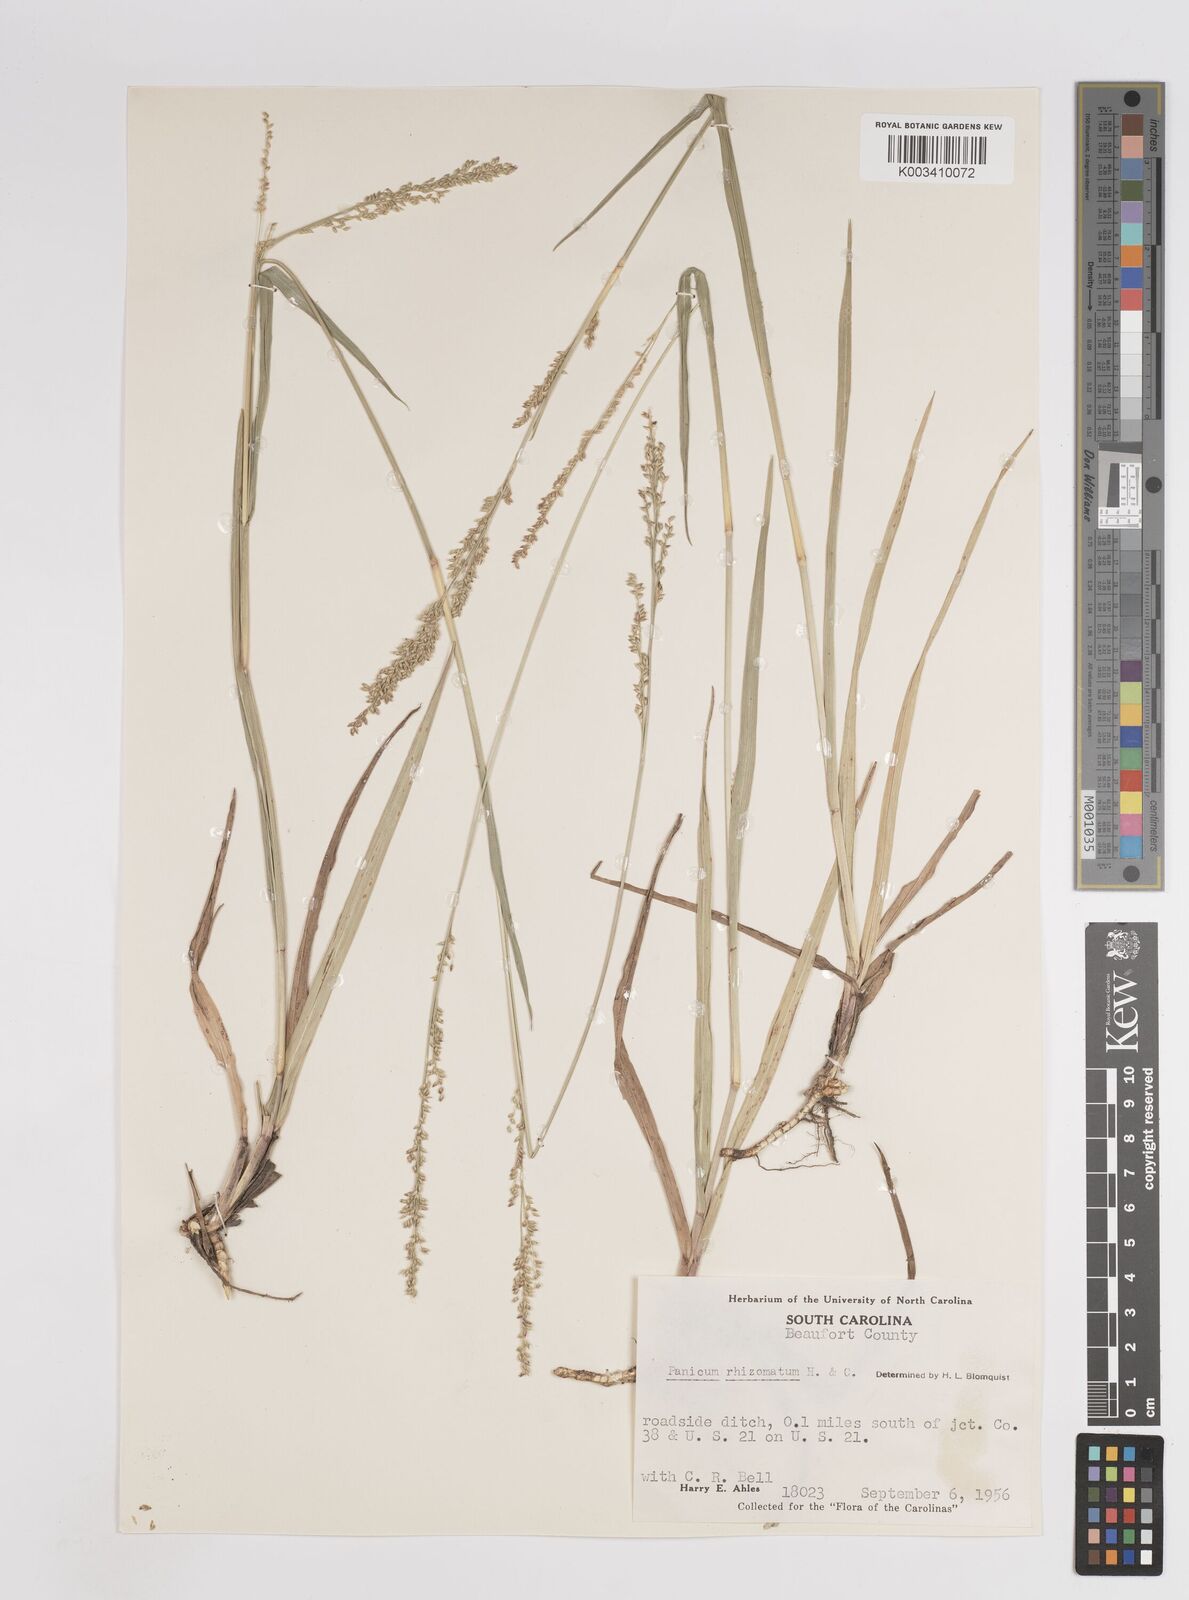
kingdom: Plantae
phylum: Tracheophyta
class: Liliopsida
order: Poales
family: Poaceae
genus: Coleataenia
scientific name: Coleataenia anceps
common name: Beaked panic grass
